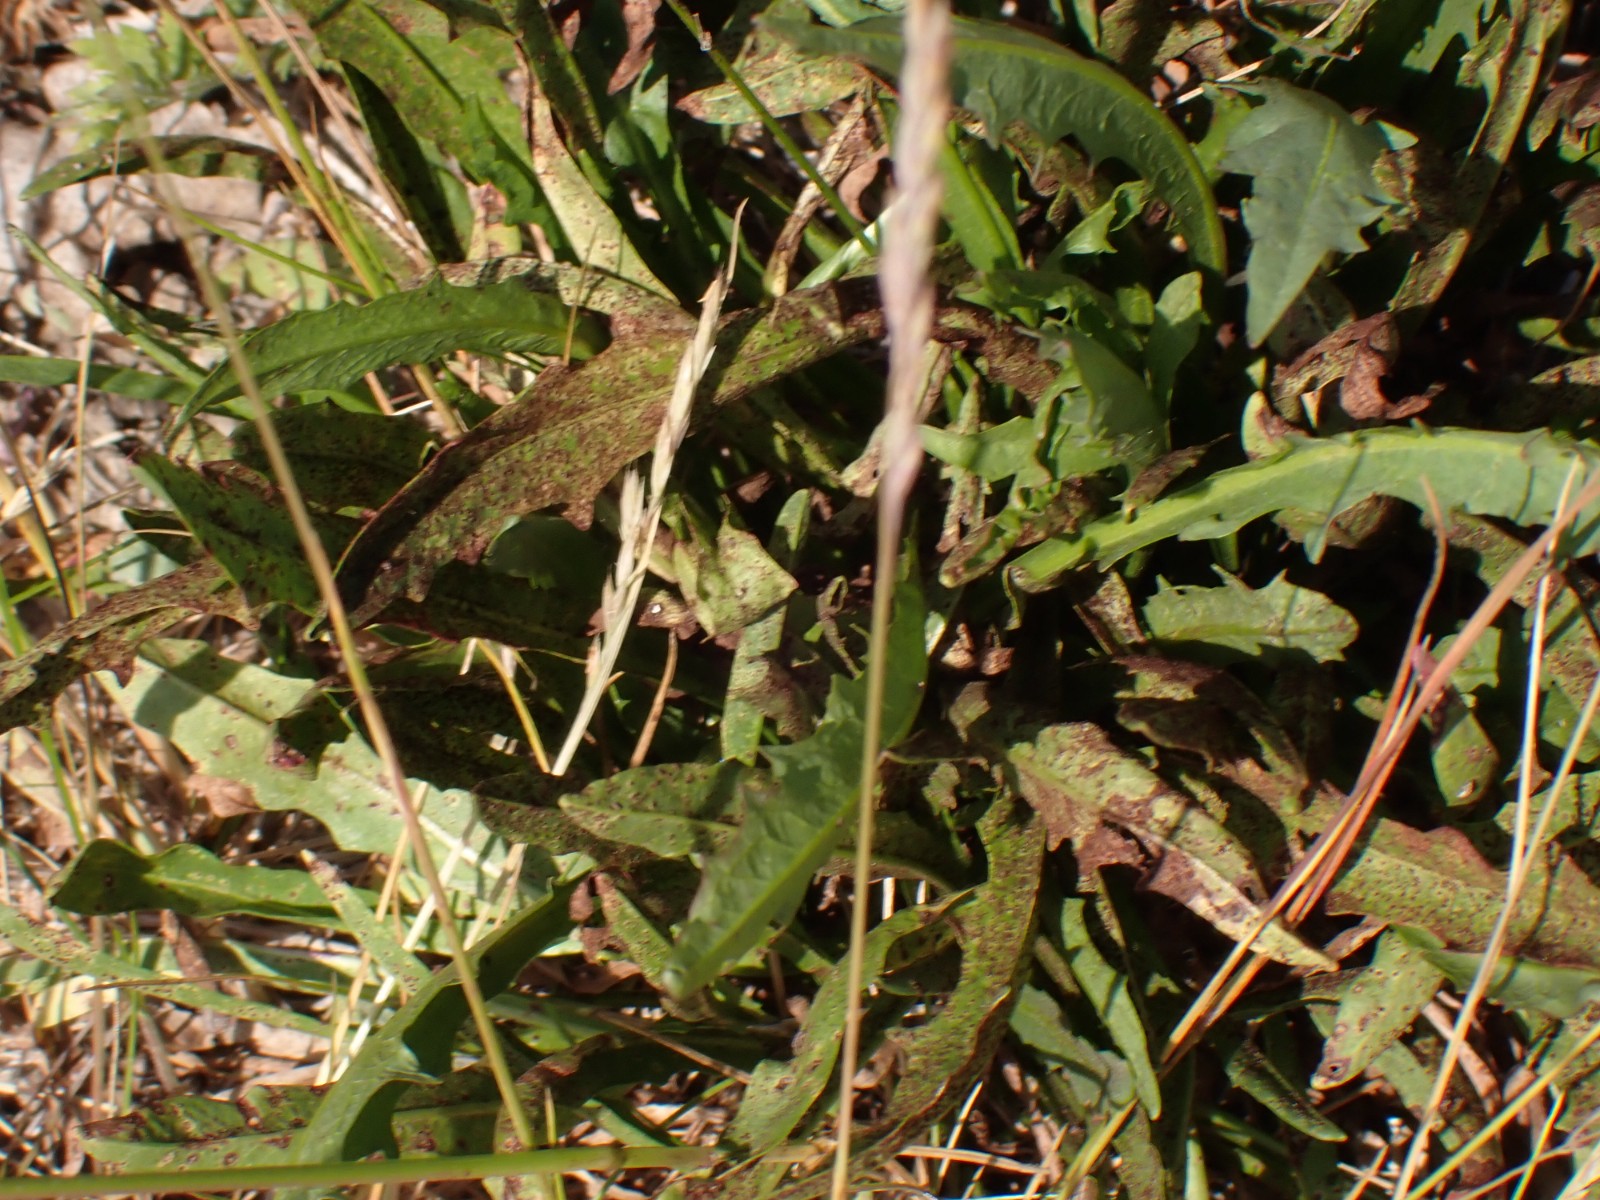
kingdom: Fungi
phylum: Basidiomycota
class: Pucciniomycetes
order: Pucciniales
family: Pucciniaceae
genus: Puccinia
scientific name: Puccinia
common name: tvecellerust
